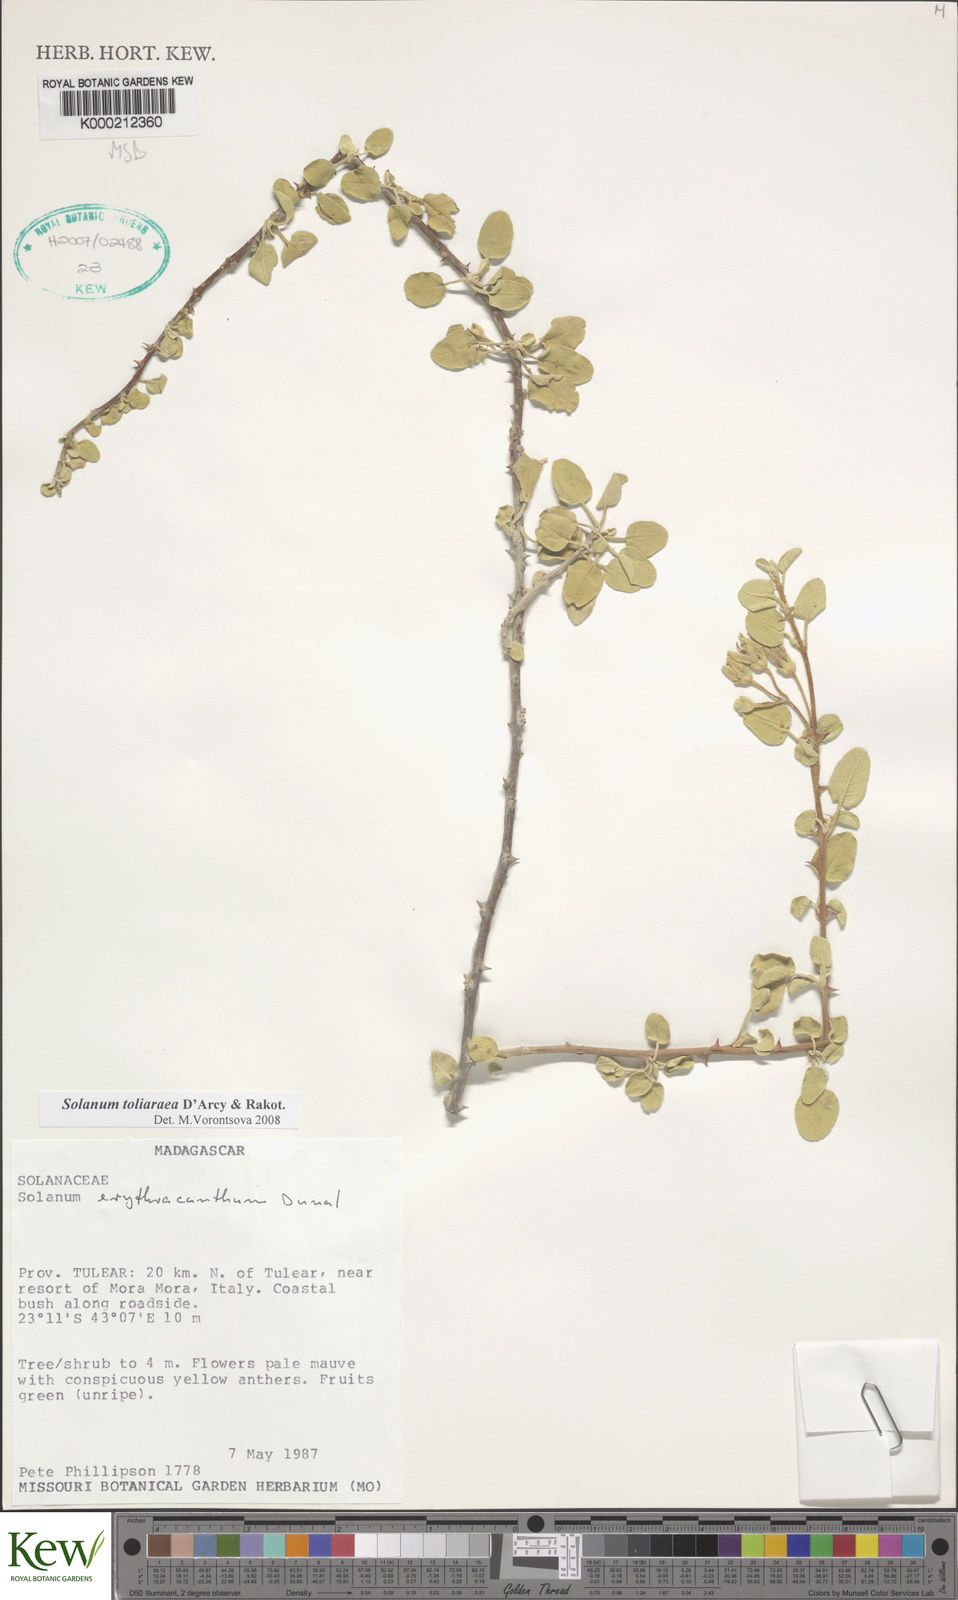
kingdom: Plantae
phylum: Tracheophyta
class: Magnoliopsida
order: Solanales
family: Solanaceae
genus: Solanum
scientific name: Solanum erythracanthum
